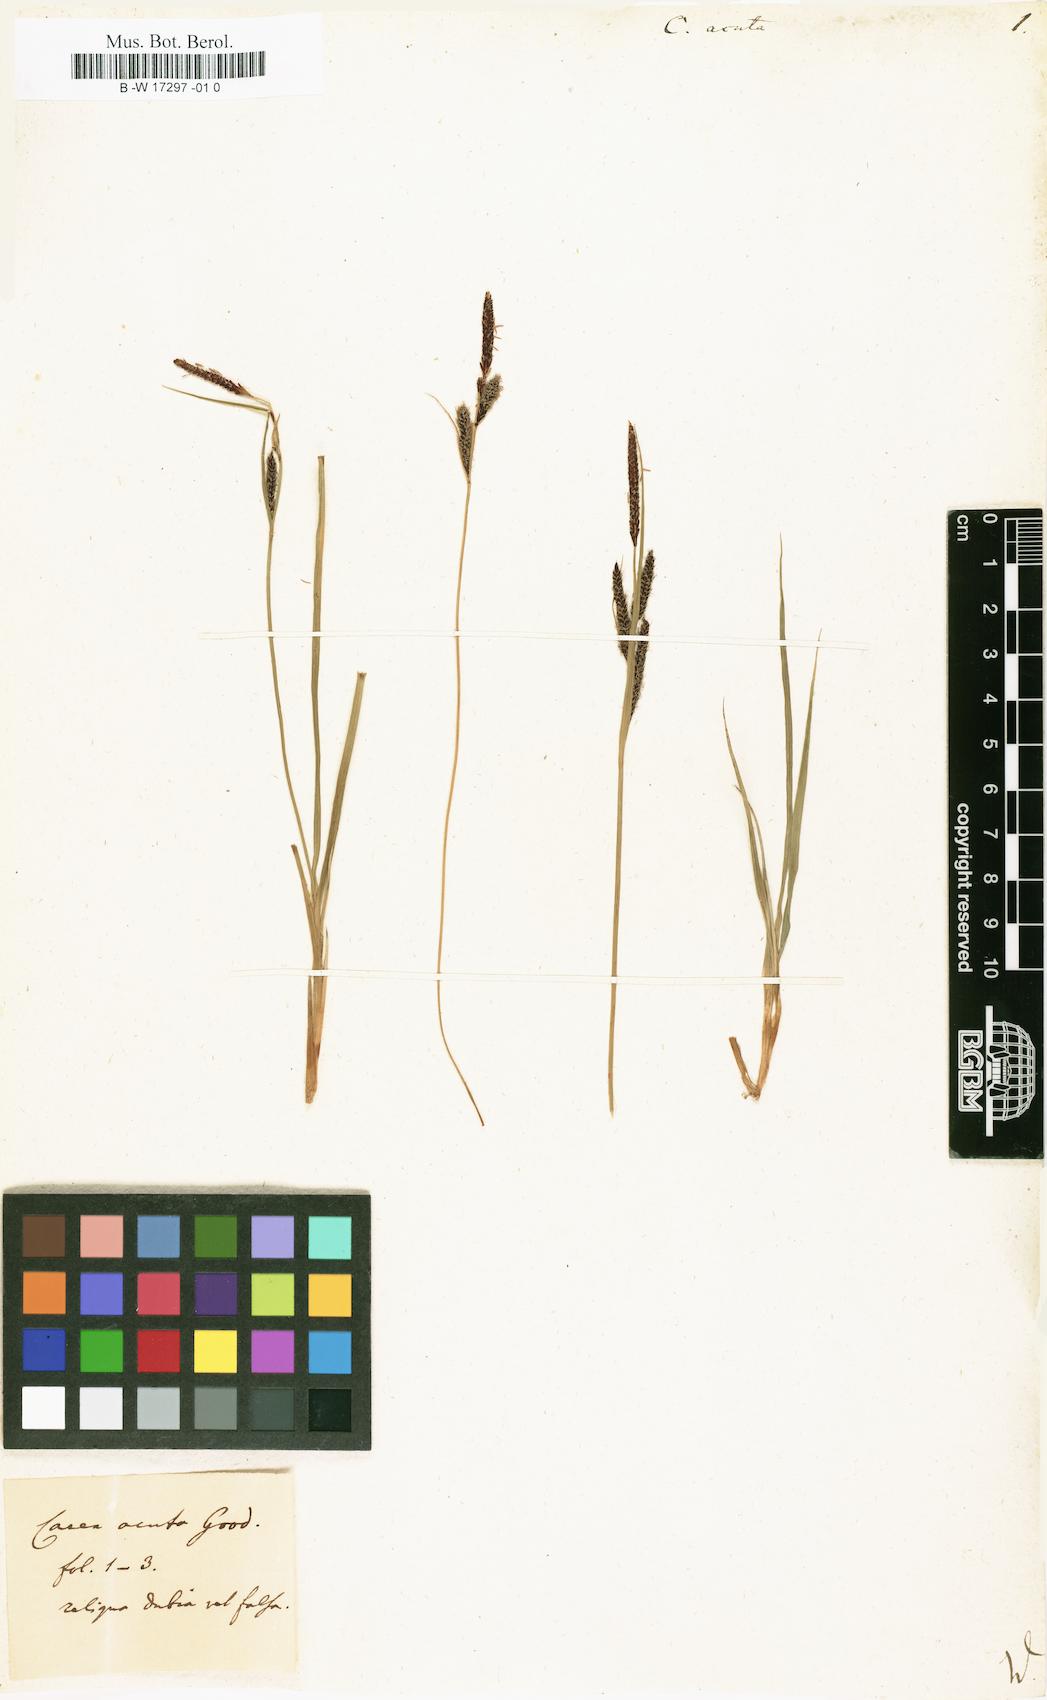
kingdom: Plantae
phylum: Tracheophyta
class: Liliopsida
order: Poales
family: Cyperaceae
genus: Carex
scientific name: Carex acuta
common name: Slender tufted-sedge
